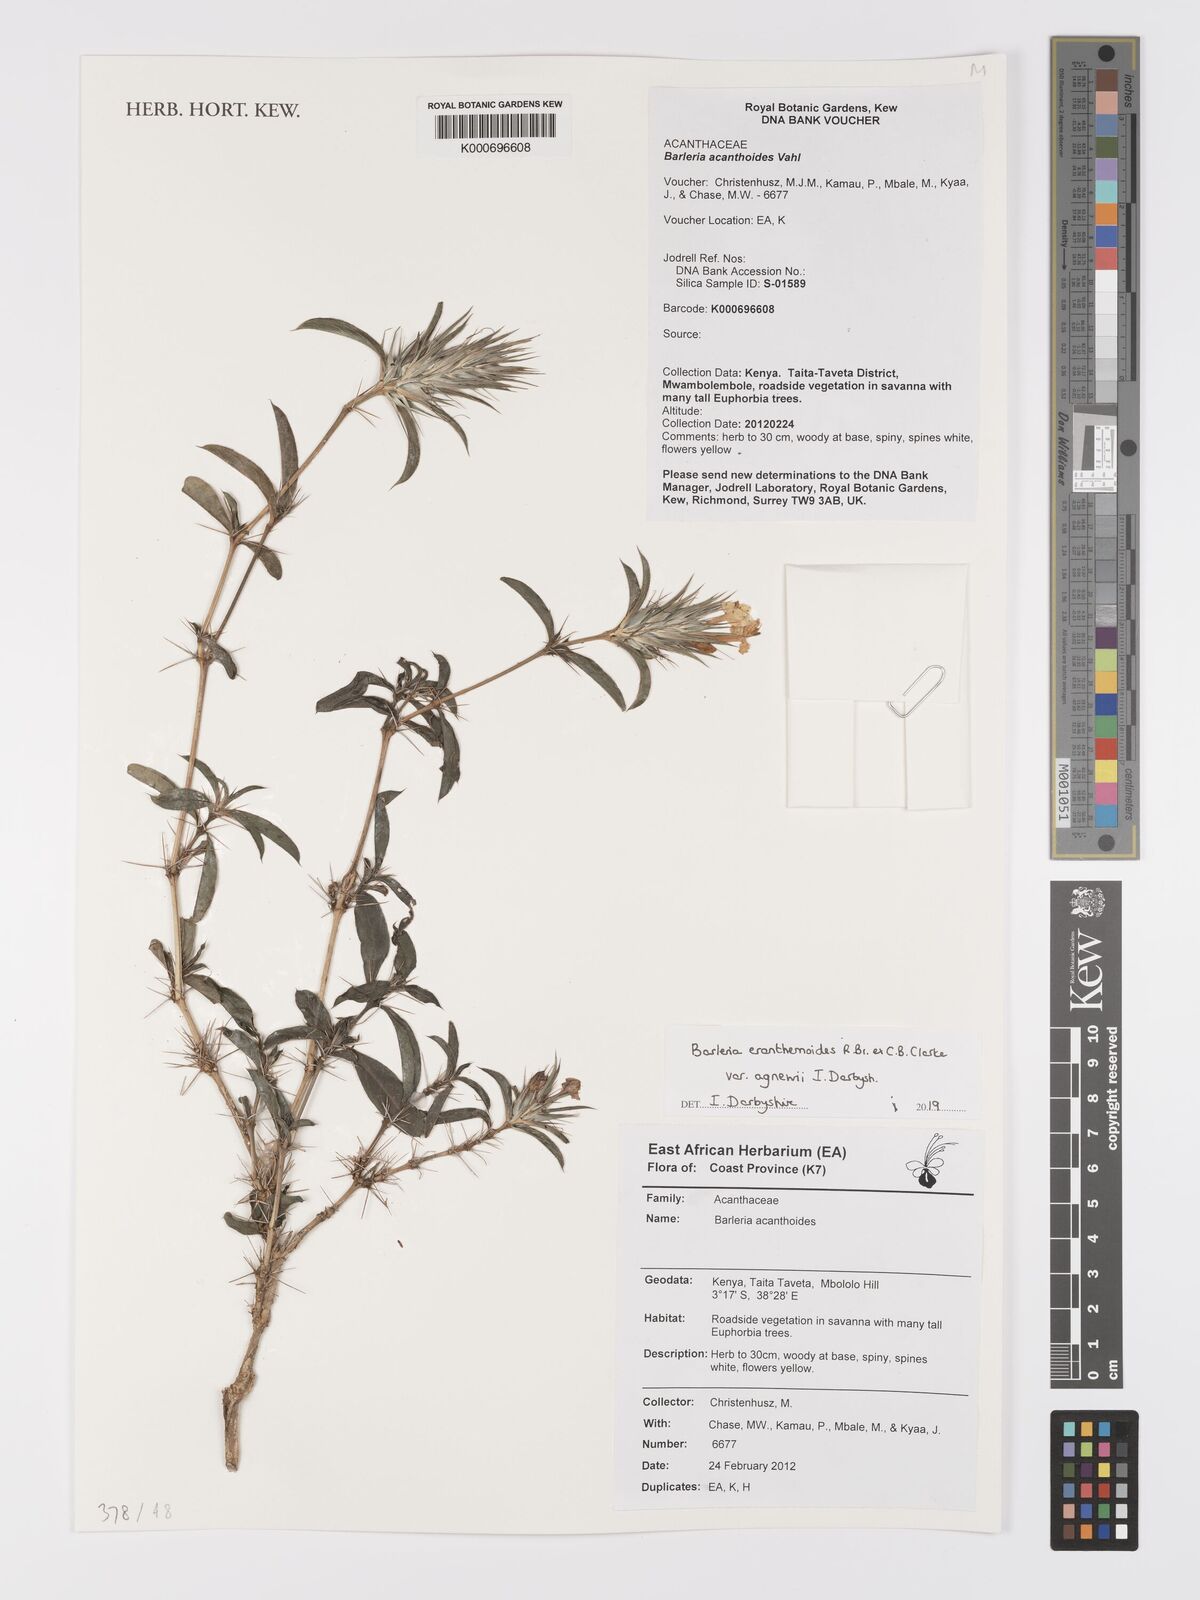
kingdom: Plantae
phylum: Tracheophyta
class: Magnoliopsida
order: Lamiales
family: Acanthaceae
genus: Barleria
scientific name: Barleria acanthoides
